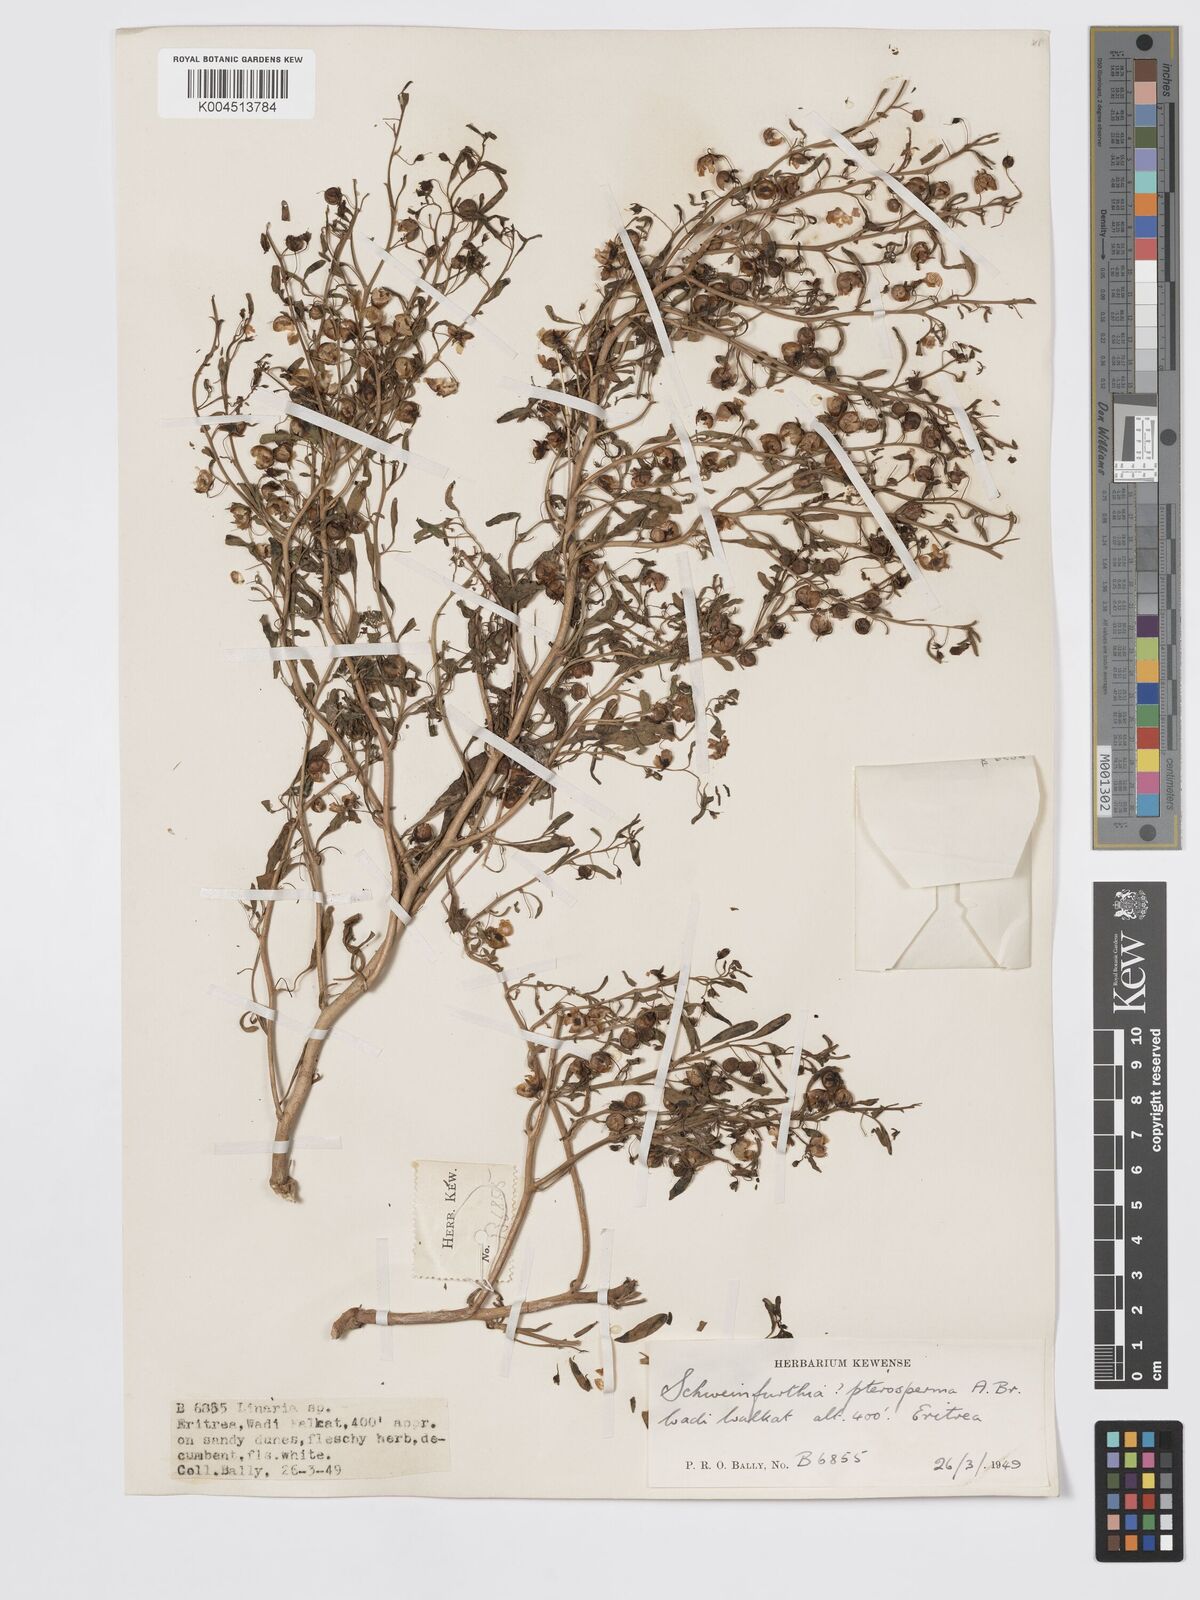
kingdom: Plantae
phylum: Tracheophyta
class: Magnoliopsida
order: Lamiales
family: Plantaginaceae
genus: Schweinfurthia
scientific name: Schweinfurthia pterosperma
